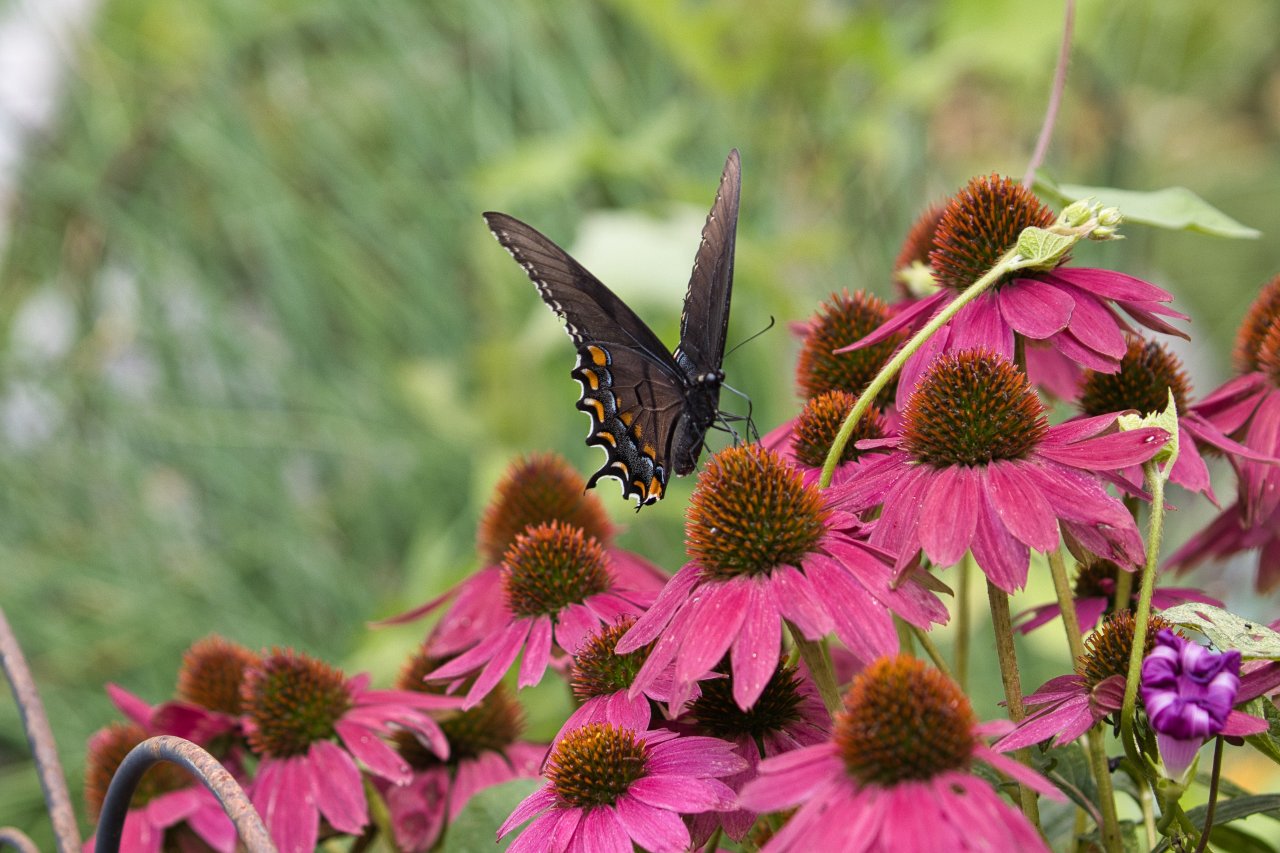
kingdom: Animalia
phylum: Arthropoda
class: Insecta
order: Lepidoptera
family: Papilionidae
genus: Pterourus
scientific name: Pterourus glaucus
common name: Eastern Tiger Swallowtail
